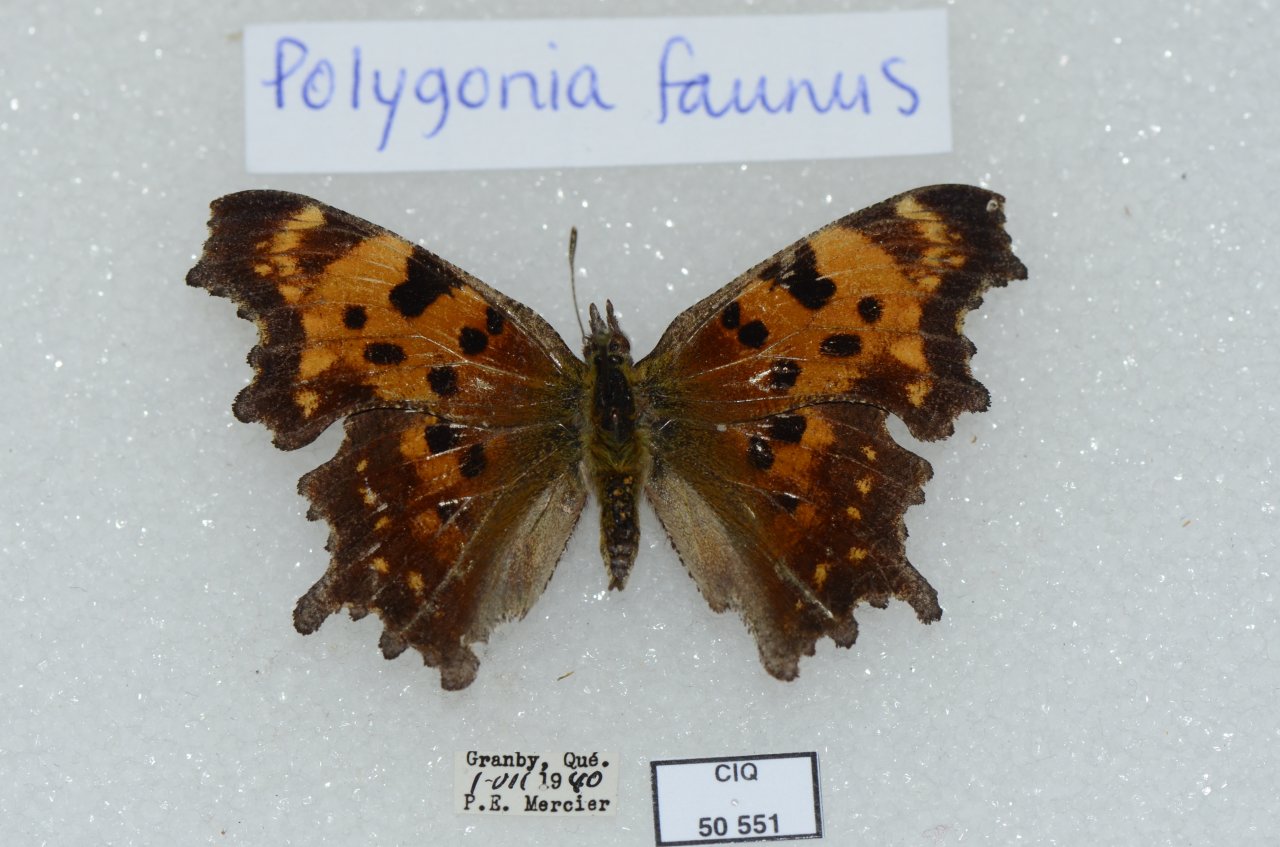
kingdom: Animalia
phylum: Arthropoda
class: Insecta
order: Lepidoptera
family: Nymphalidae
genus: Polygonia
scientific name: Polygonia faunus
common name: Green Comma
